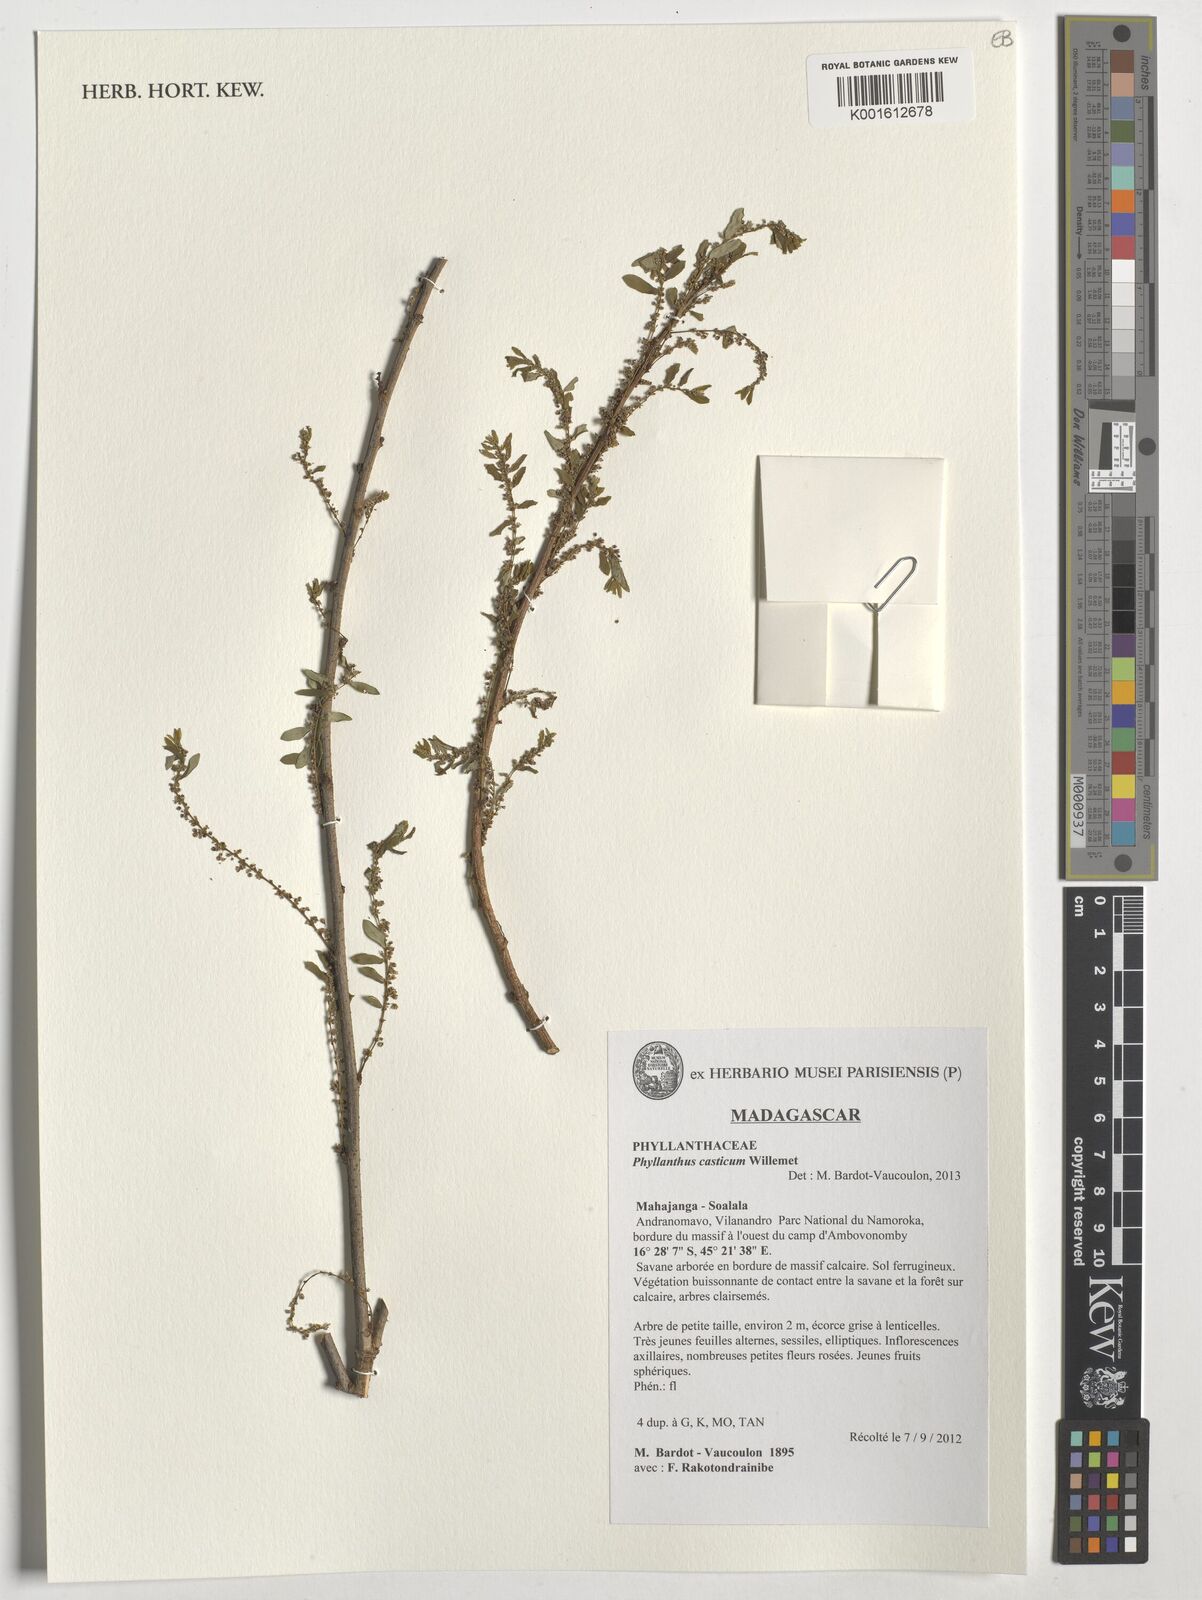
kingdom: Plantae
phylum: Tracheophyta
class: Magnoliopsida
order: Malpighiales
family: Phyllanthaceae
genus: Phyllanthus
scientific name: Phyllanthus casticum
